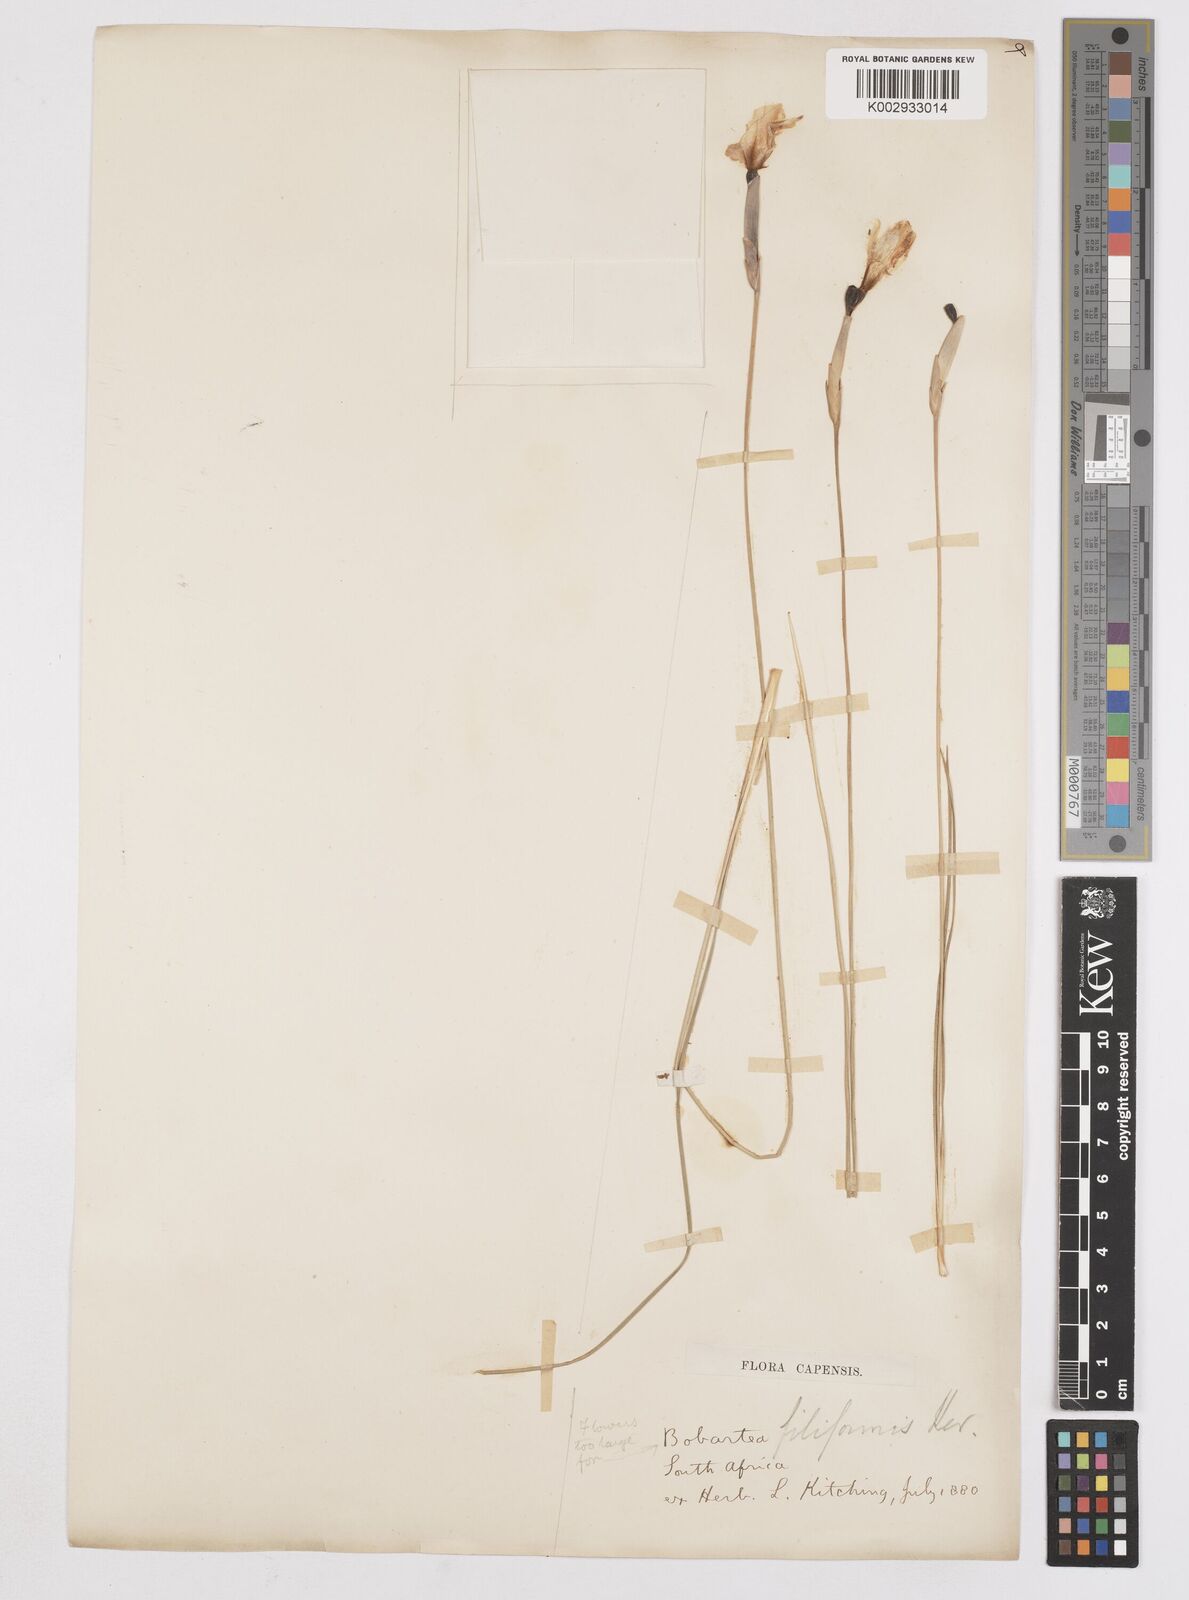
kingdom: Plantae
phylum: Tracheophyta
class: Liliopsida
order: Asparagales
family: Iridaceae
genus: Bobartia
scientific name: Bobartia filiformis
